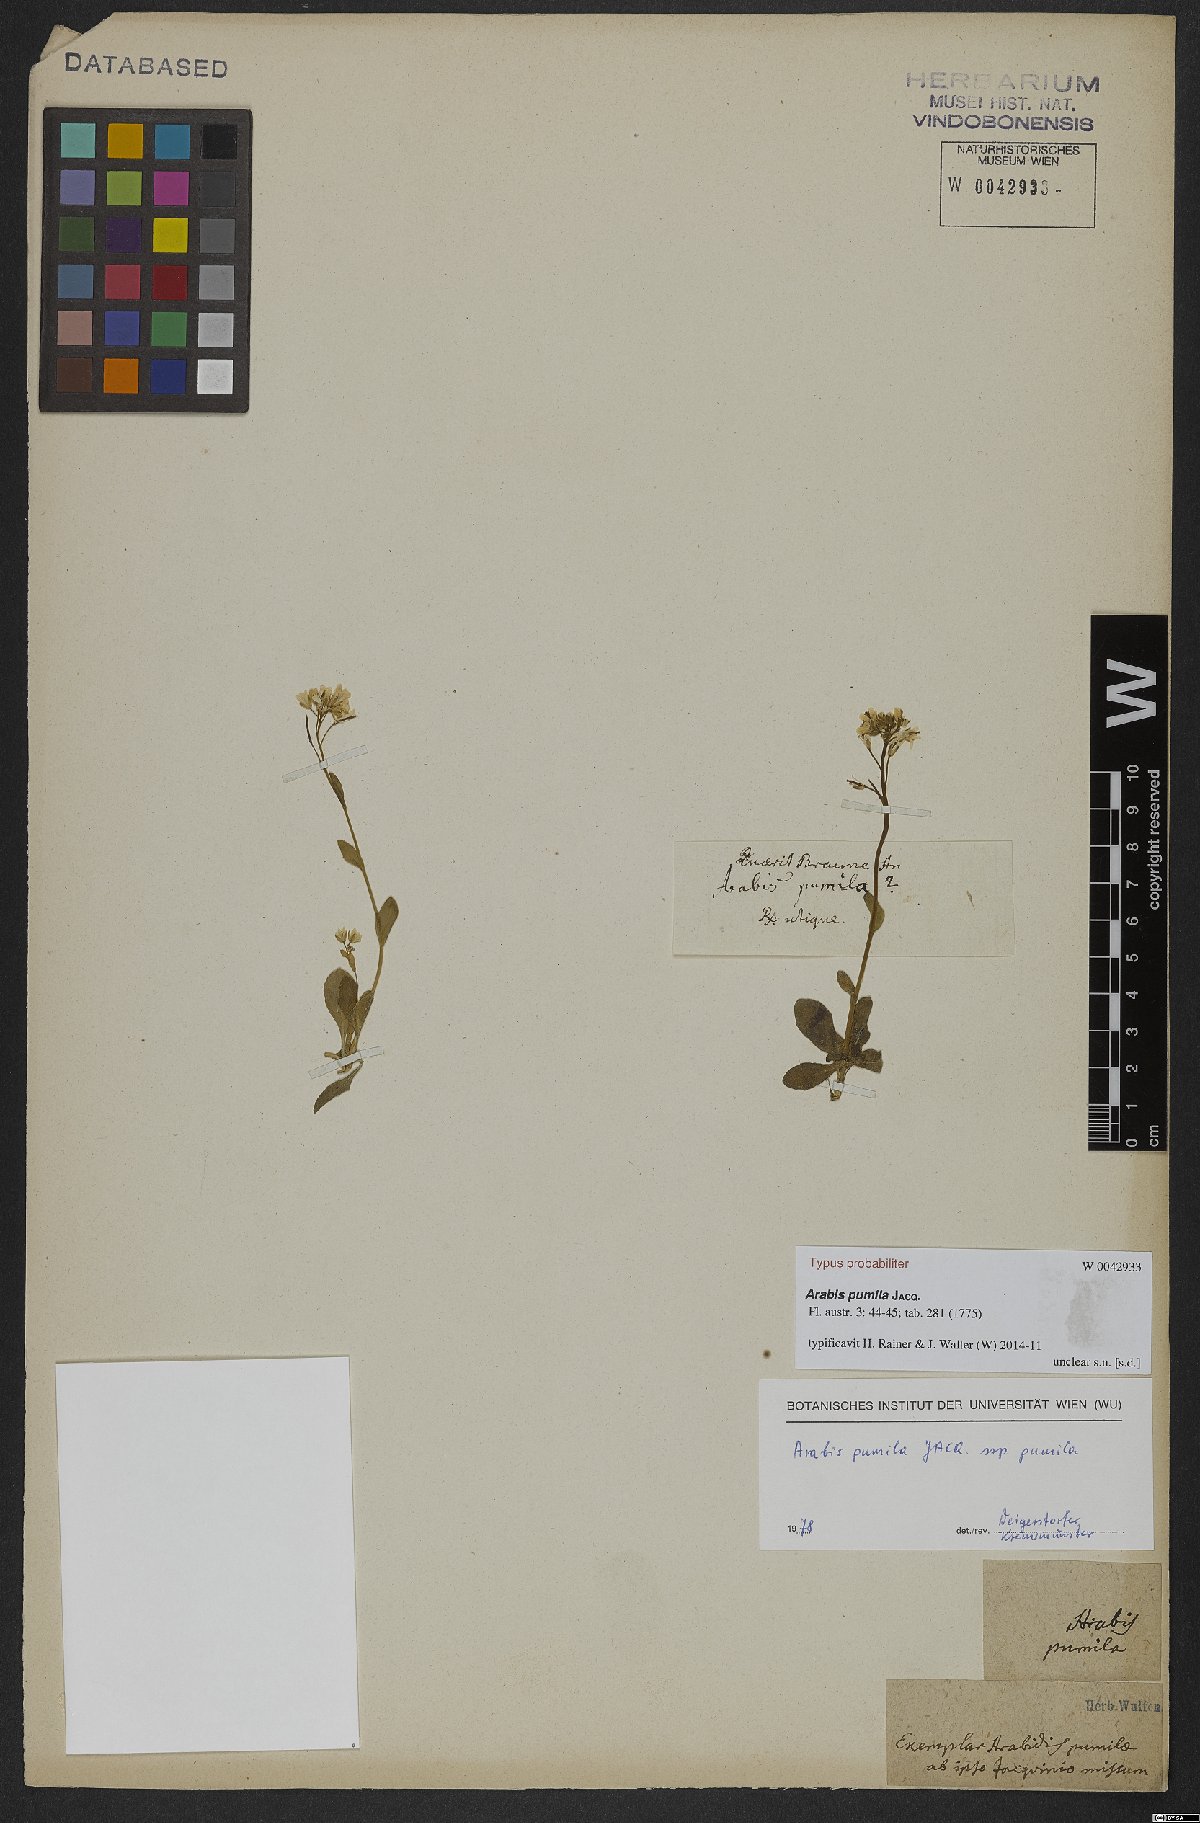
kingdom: Plantae
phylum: Tracheophyta
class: Magnoliopsida
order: Brassicales
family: Brassicaceae
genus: Arabis
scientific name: Arabis pumila
